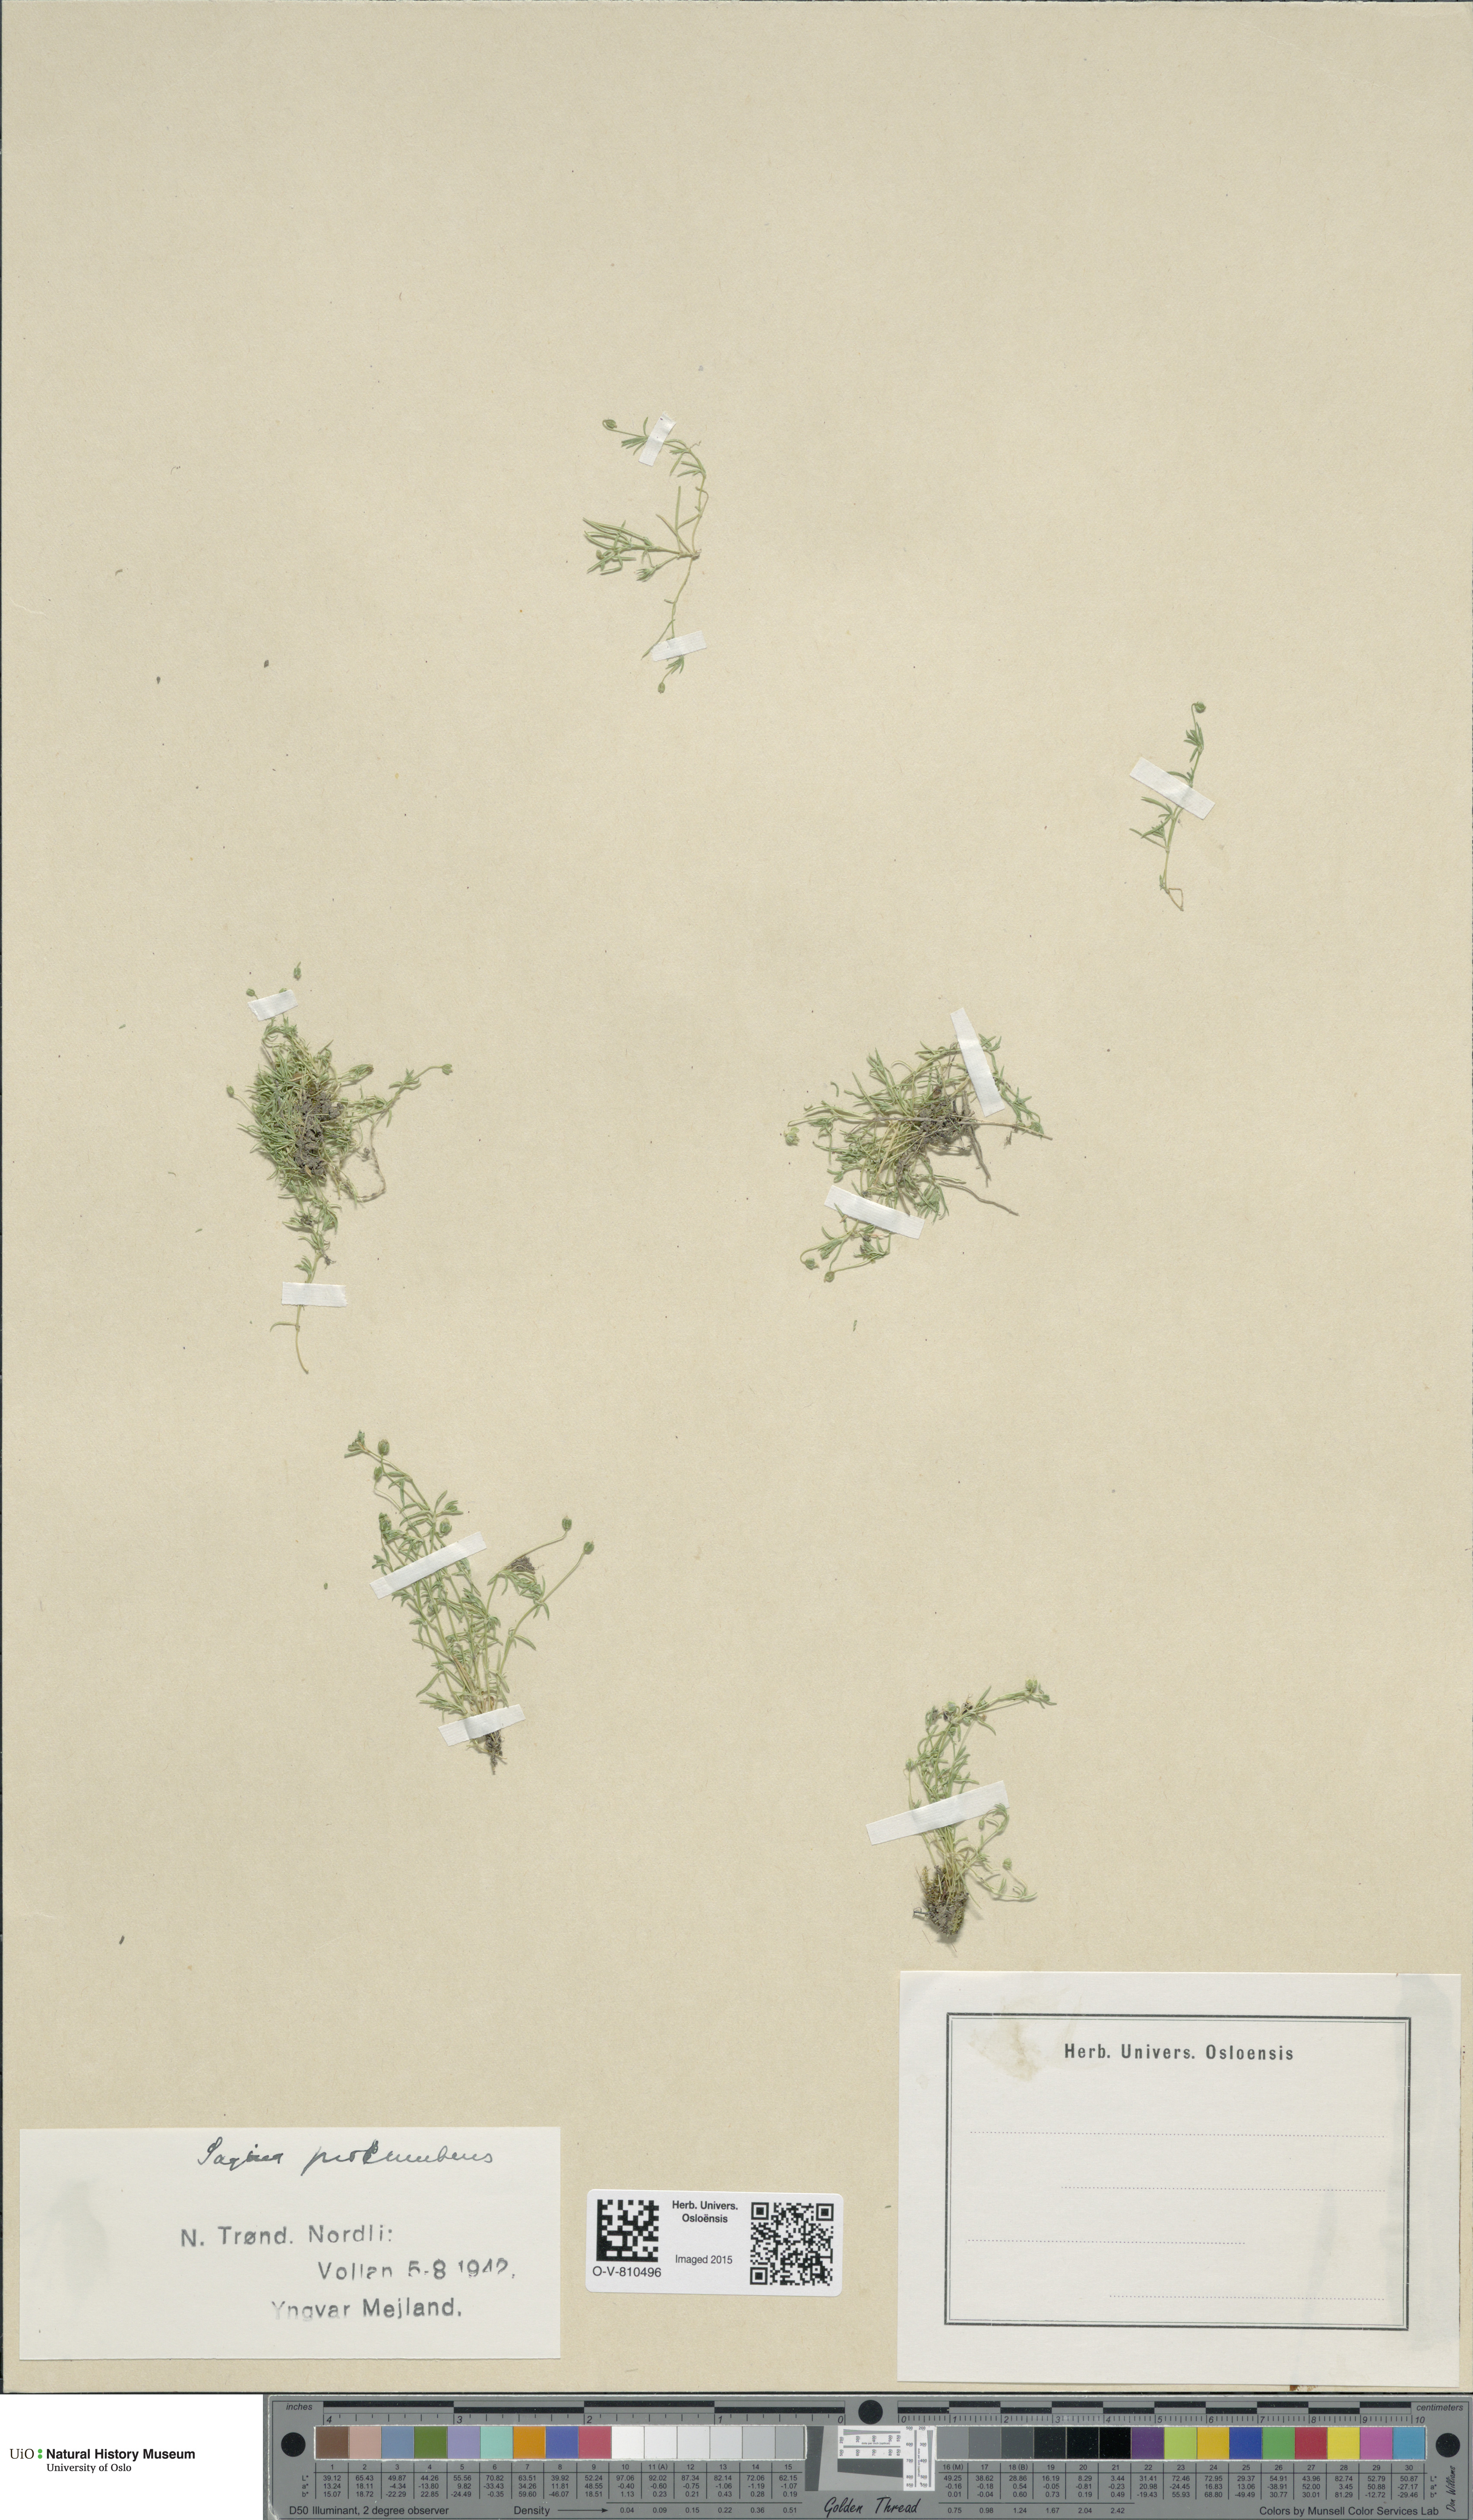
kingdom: Plantae
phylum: Tracheophyta
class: Magnoliopsida
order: Caryophyllales
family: Caryophyllaceae
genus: Sagina
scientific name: Sagina procumbens
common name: Procumbent pearlwort
